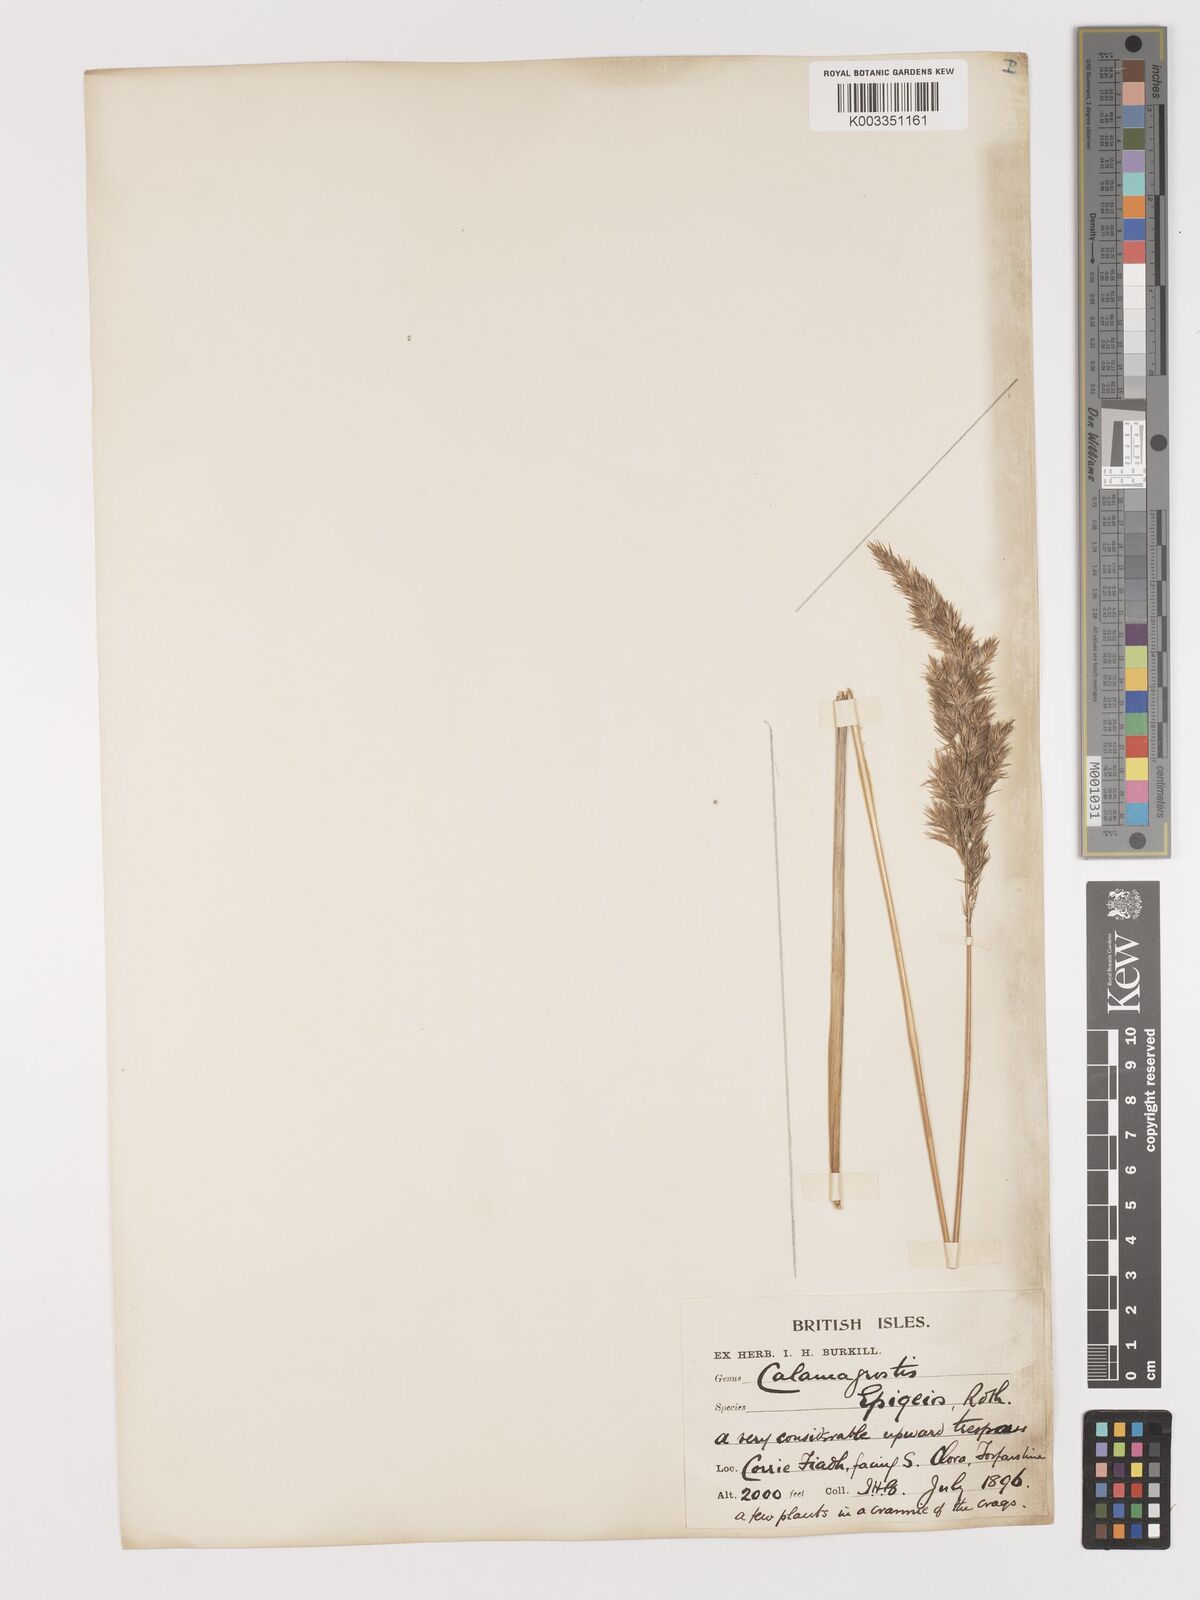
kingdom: Plantae
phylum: Tracheophyta
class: Liliopsida
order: Poales
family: Poaceae
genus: Calamagrostis
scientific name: Calamagrostis
